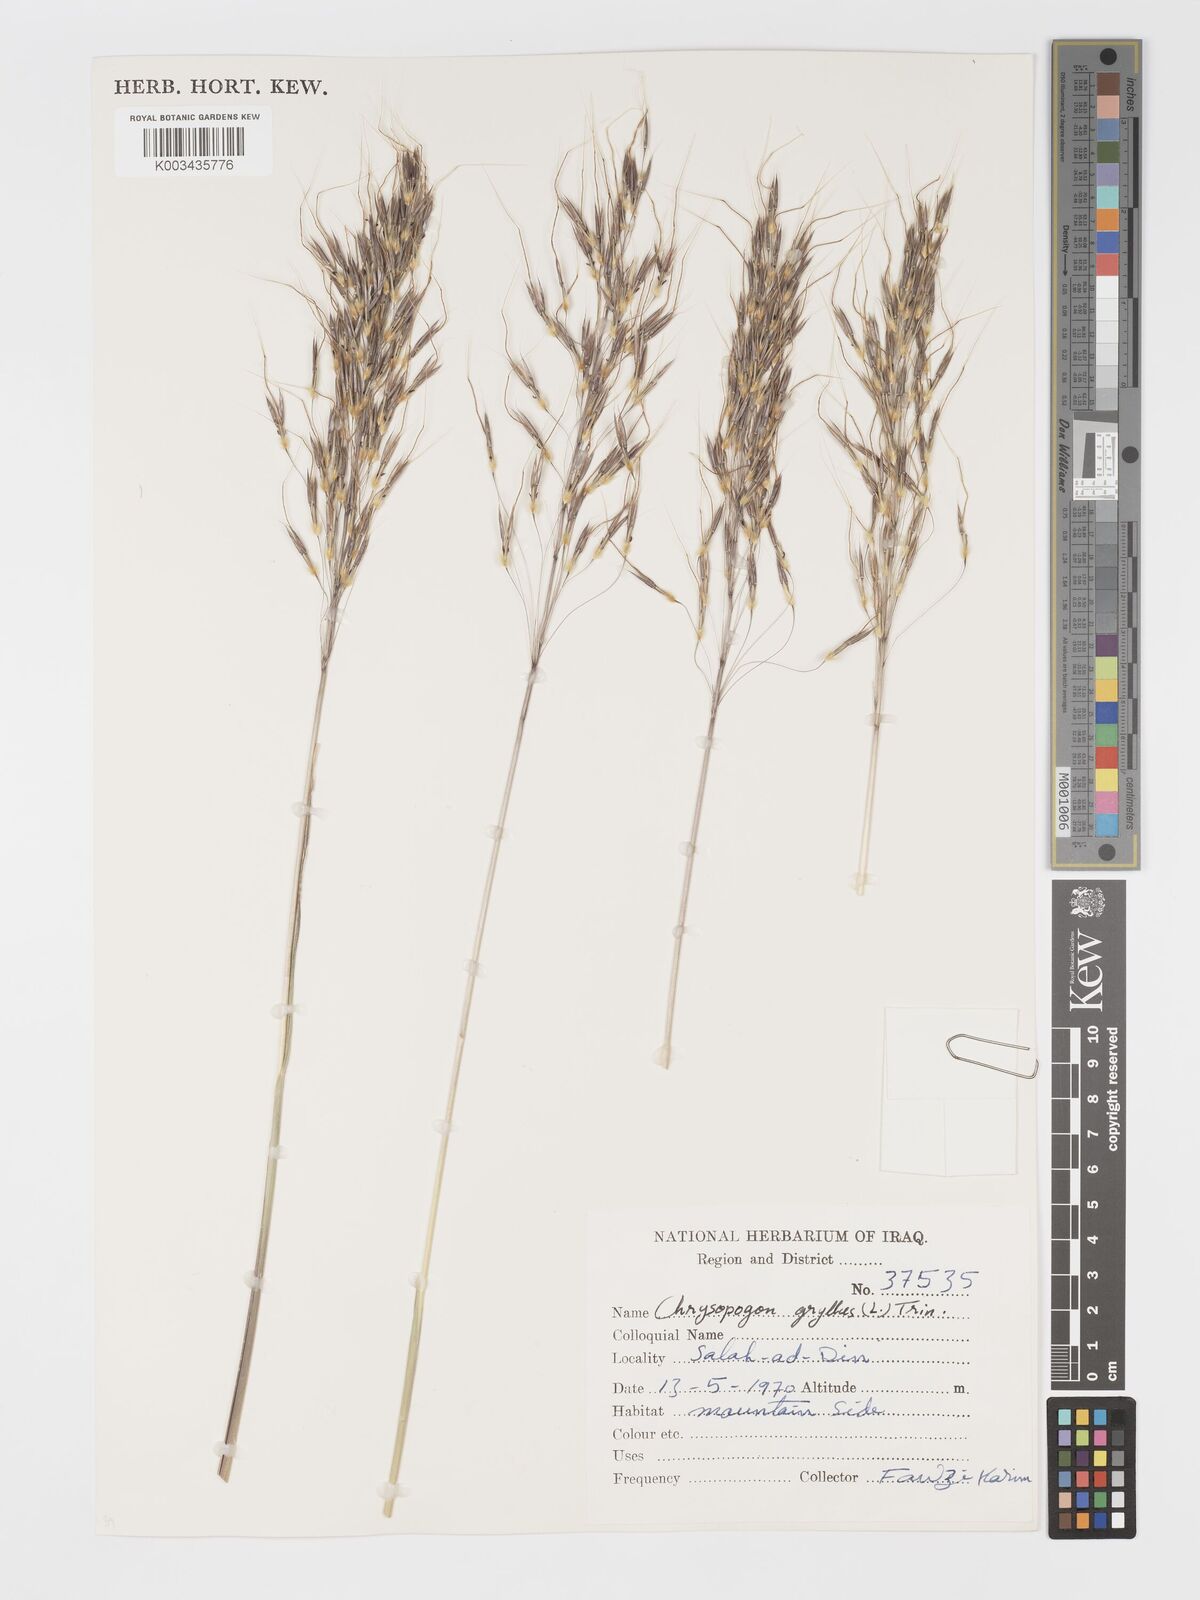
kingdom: Plantae
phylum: Tracheophyta
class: Liliopsida
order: Poales
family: Poaceae
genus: Chrysopogon
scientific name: Chrysopogon gryllus
